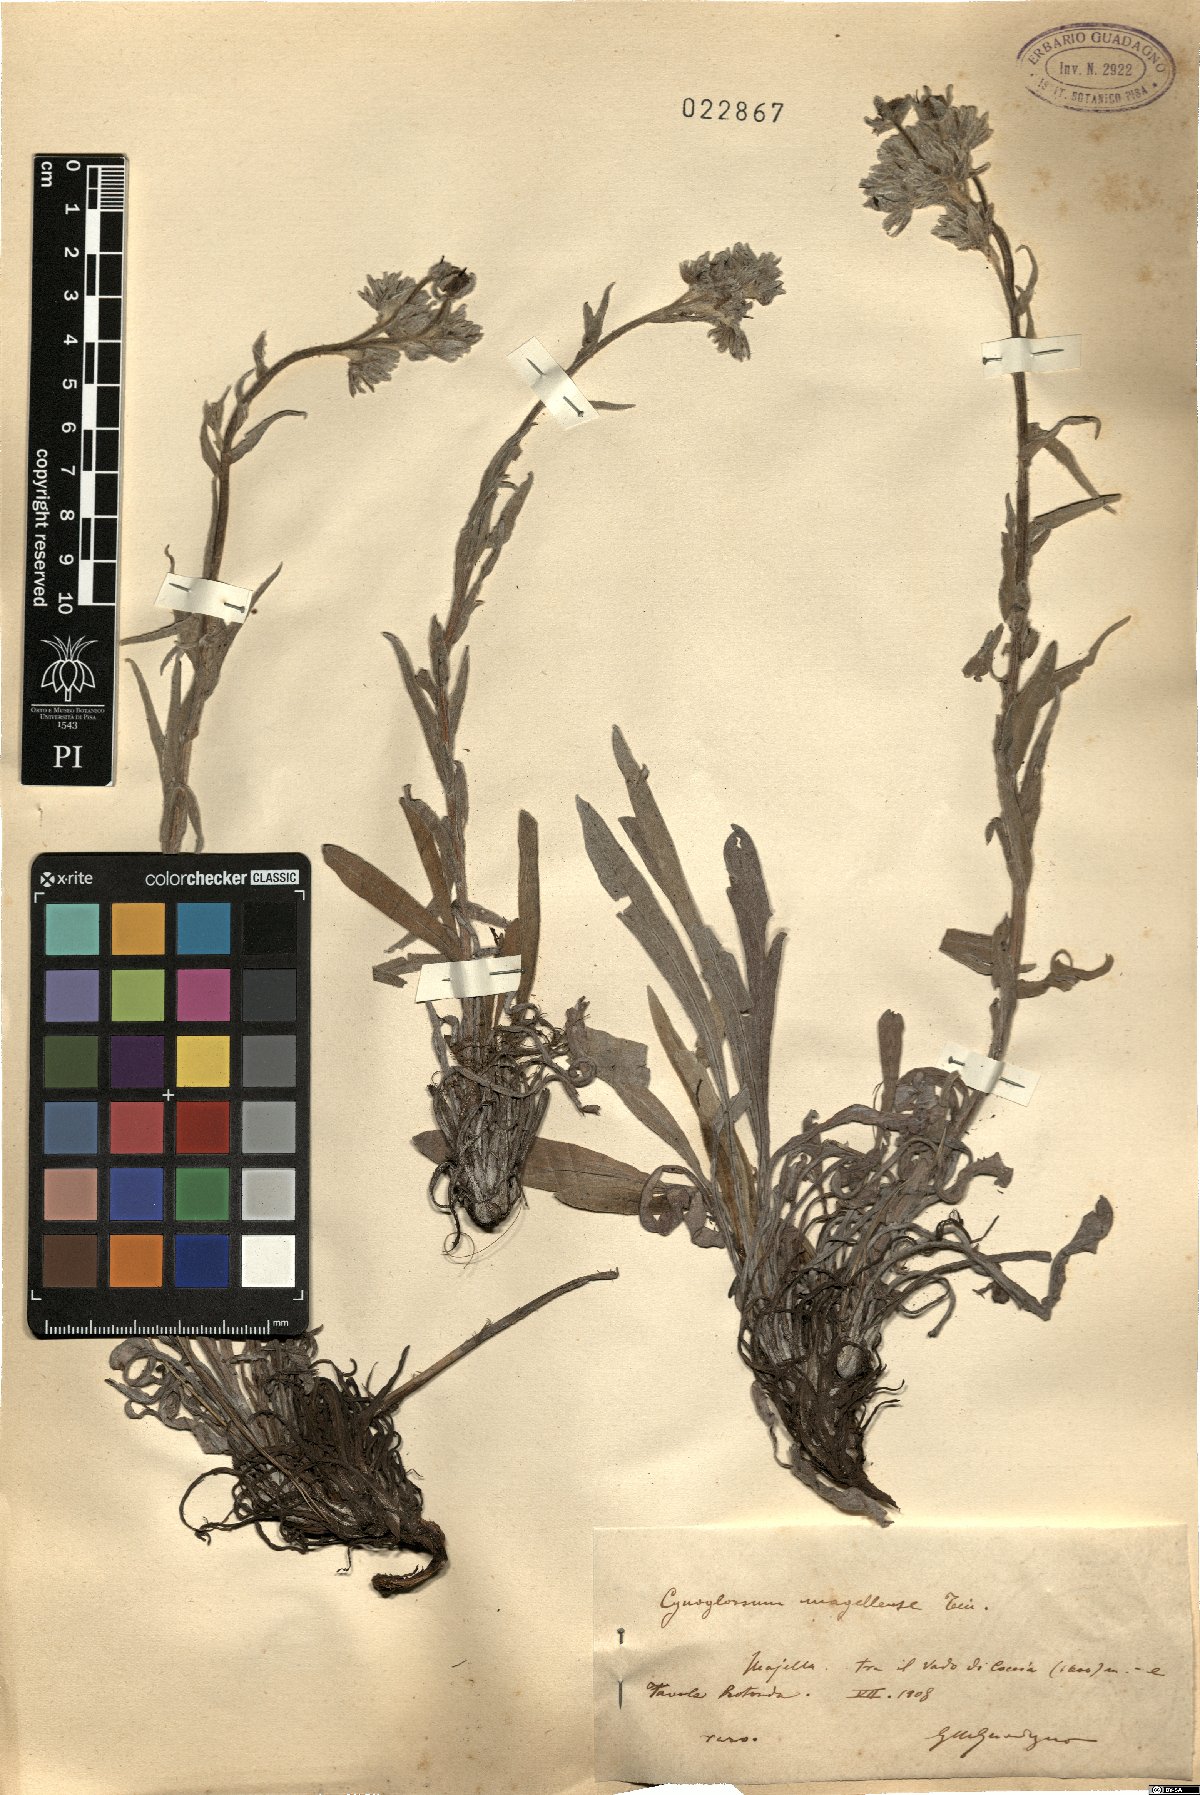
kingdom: Plantae
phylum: Tracheophyta
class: Magnoliopsida
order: Boraginales
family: Boraginaceae
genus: Rindera
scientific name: Rindera magellensis
